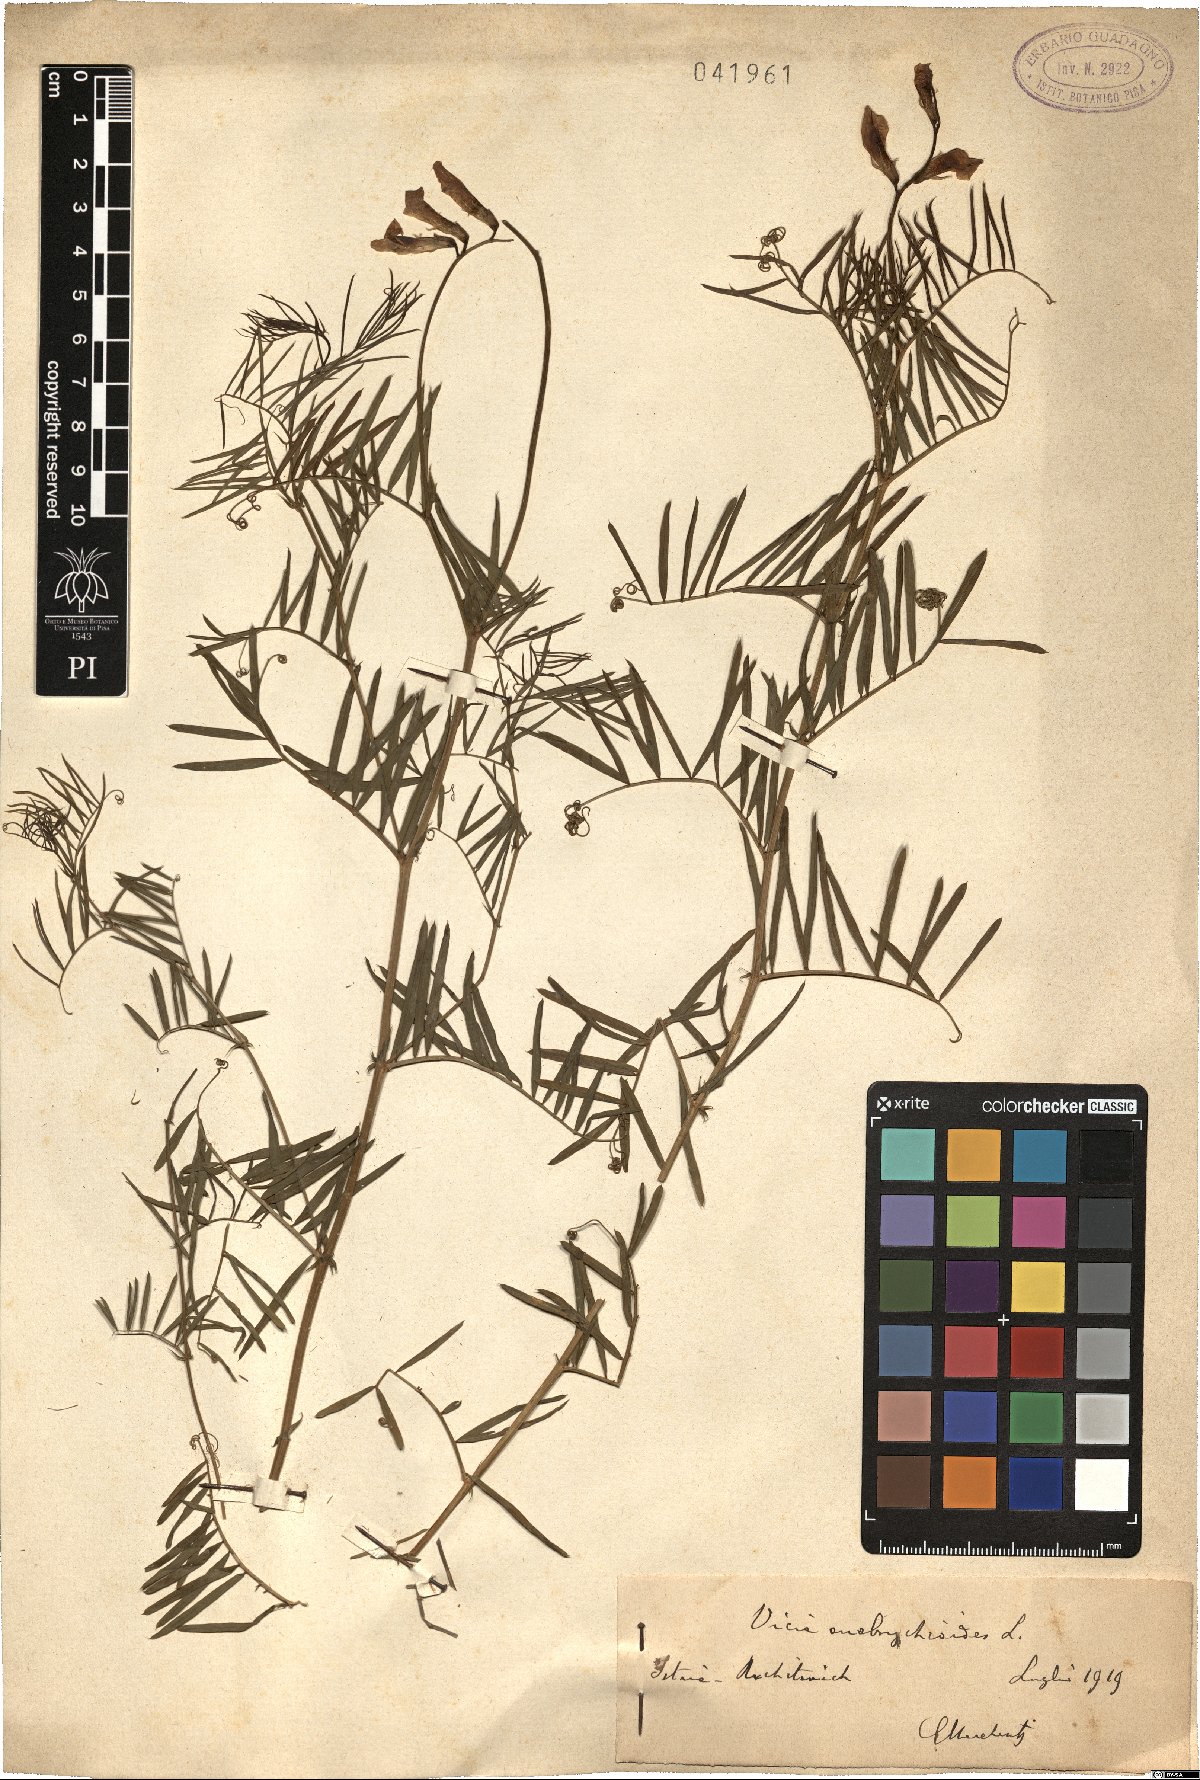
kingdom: Plantae
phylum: Tracheophyta
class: Magnoliopsida
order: Fabales
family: Fabaceae
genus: Vicia
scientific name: Vicia onobrychioides
